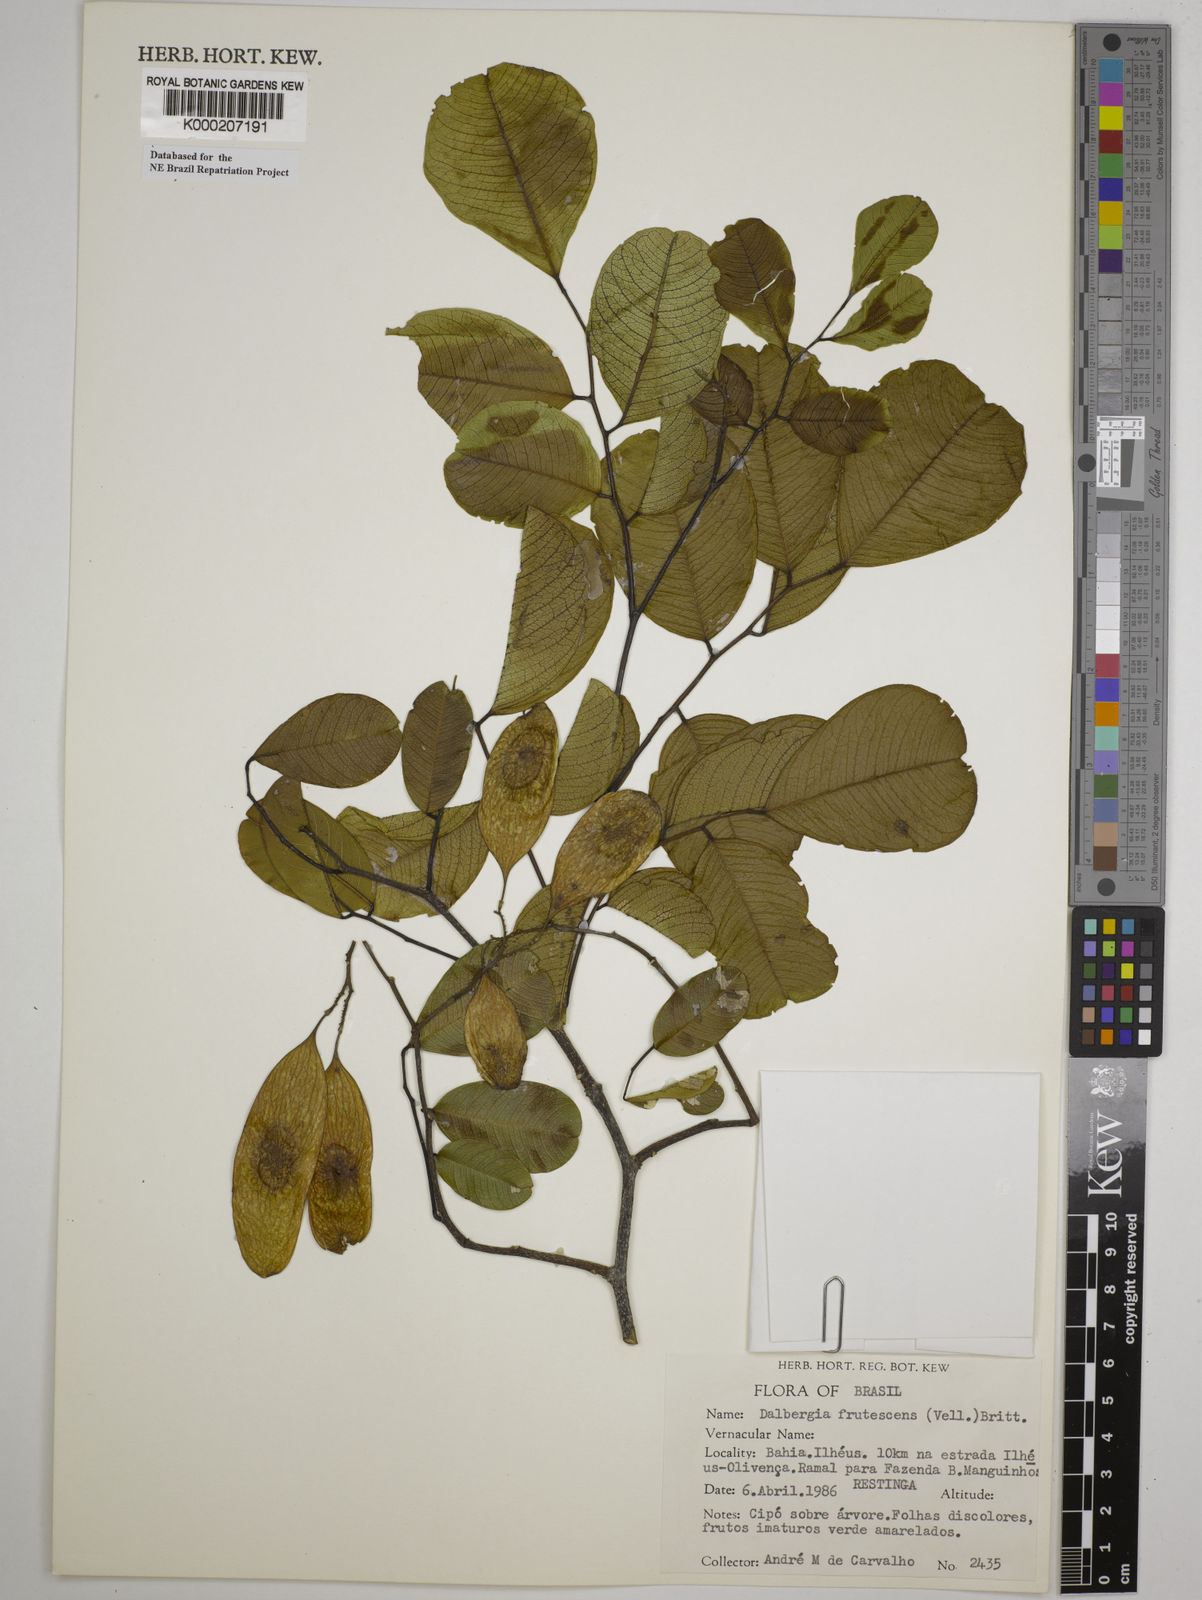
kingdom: Plantae
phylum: Tracheophyta
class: Magnoliopsida
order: Fabales
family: Fabaceae
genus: Dalbergia
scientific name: Dalbergia frutescens
